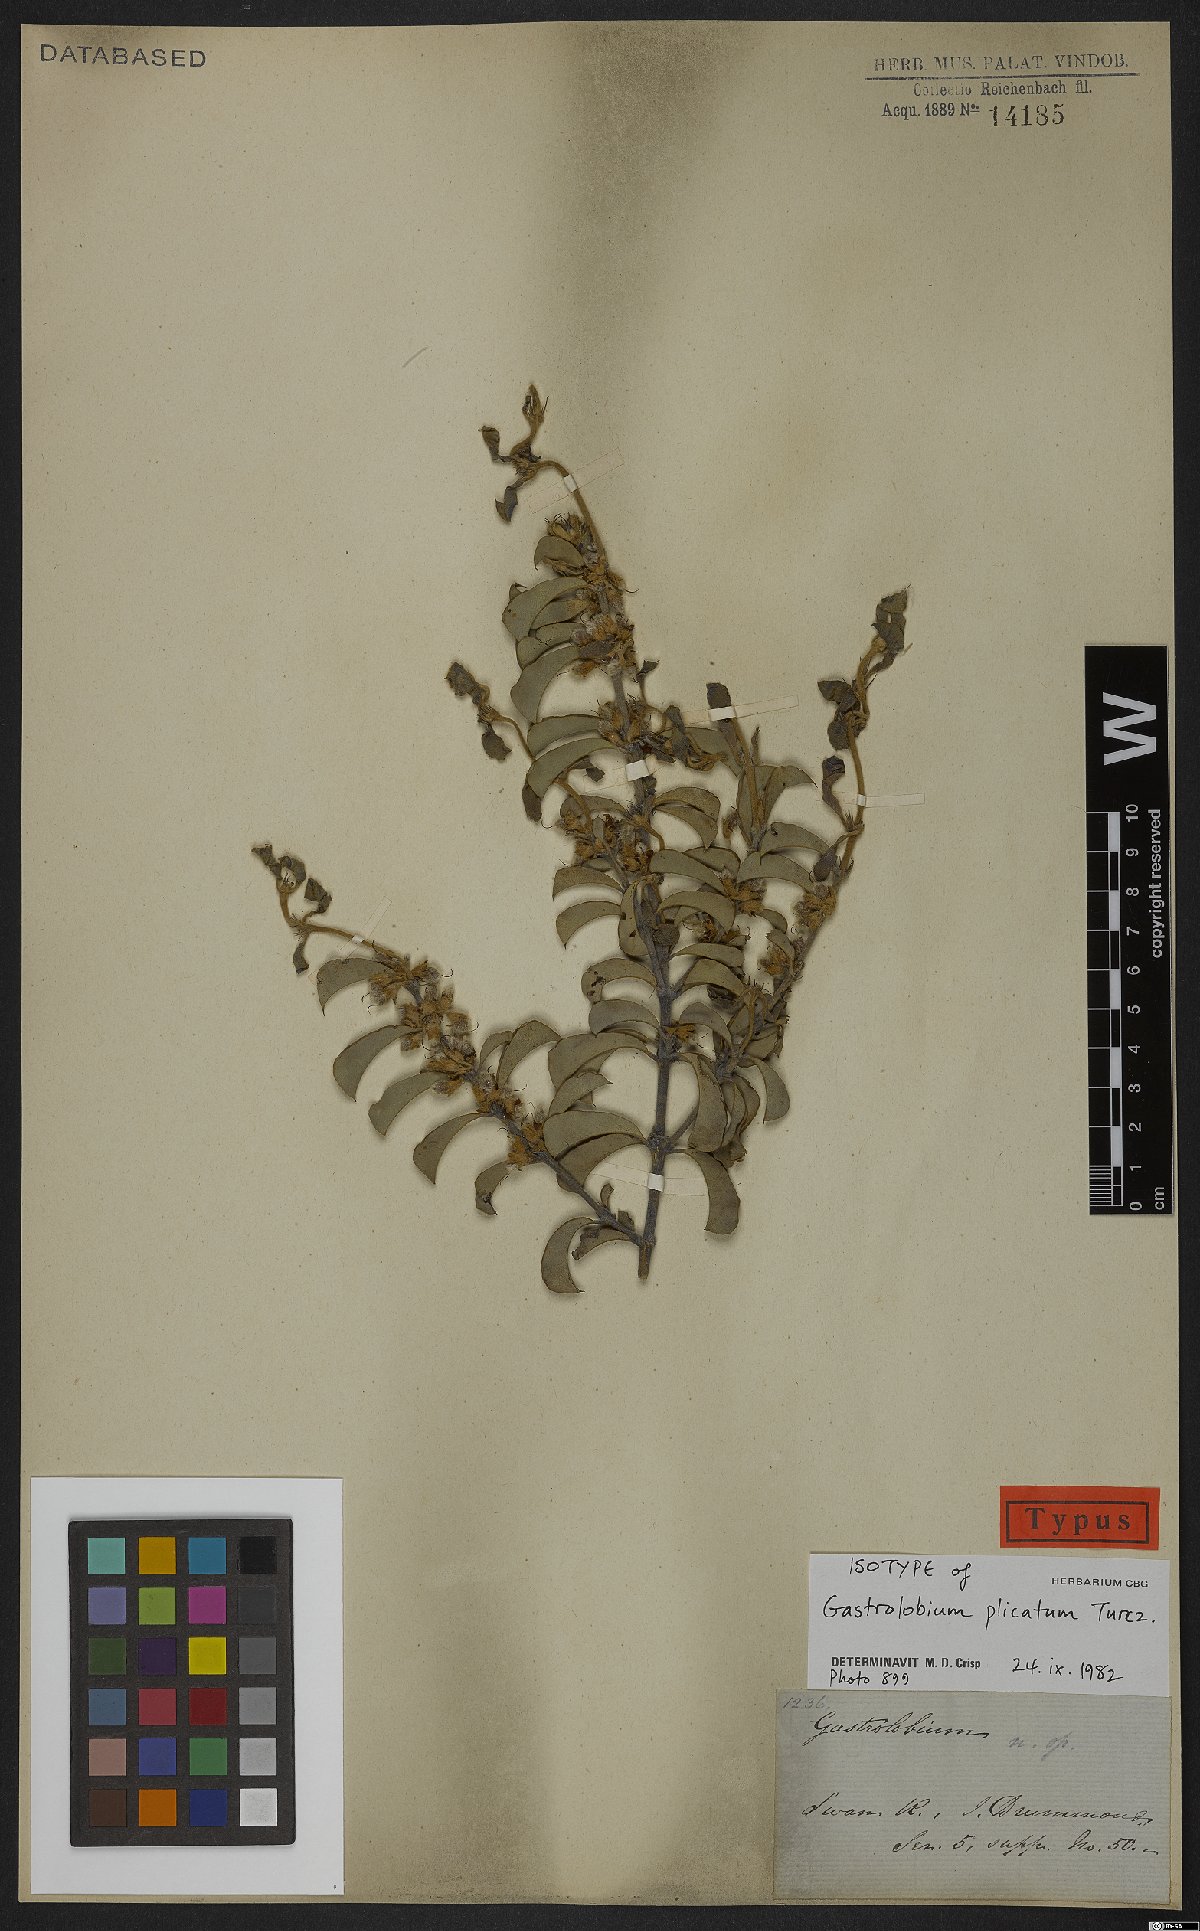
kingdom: Plantae
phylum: Tracheophyta
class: Magnoliopsida
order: Fabales
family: Fabaceae
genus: Gastrolobium
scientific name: Gastrolobium plicatum
